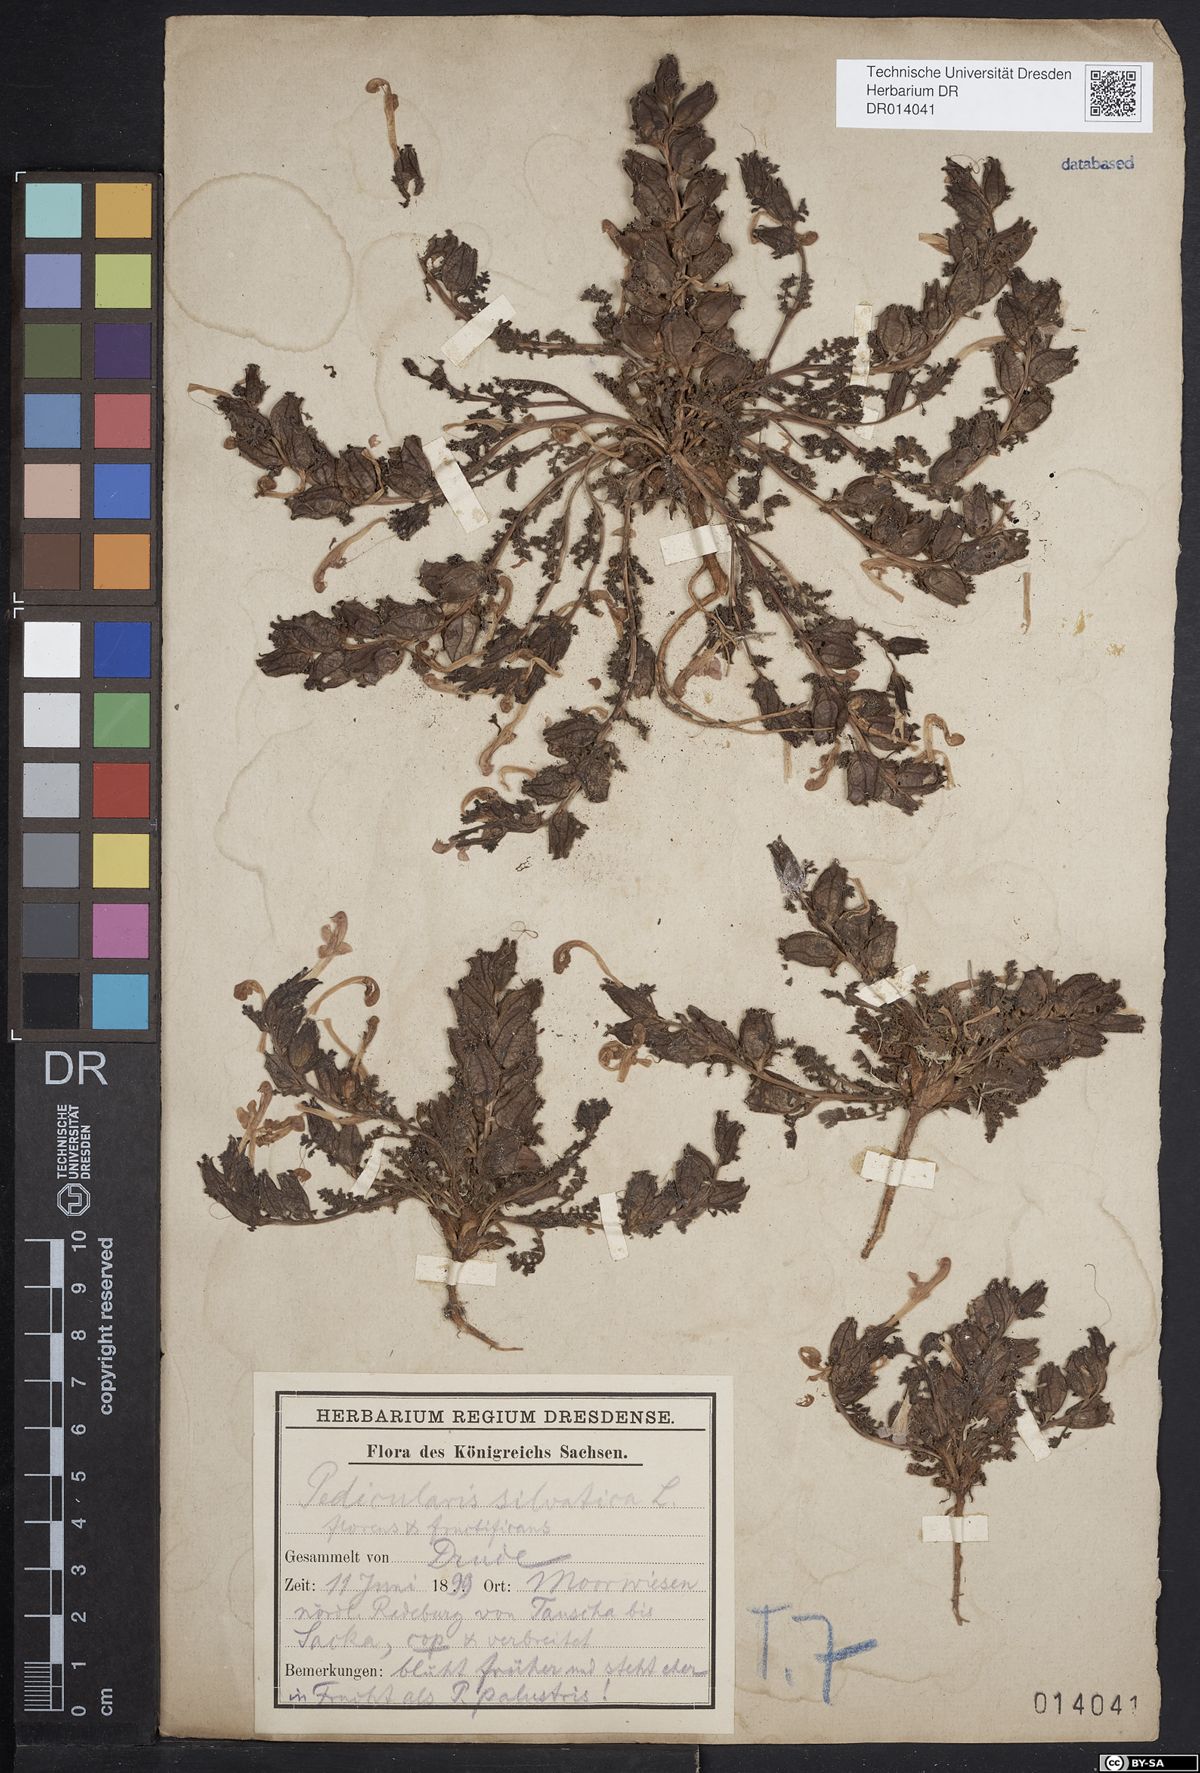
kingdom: Plantae
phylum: Tracheophyta
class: Magnoliopsida
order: Lamiales
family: Orobanchaceae
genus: Pedicularis
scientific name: Pedicularis sylvatica
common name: Lousewort
